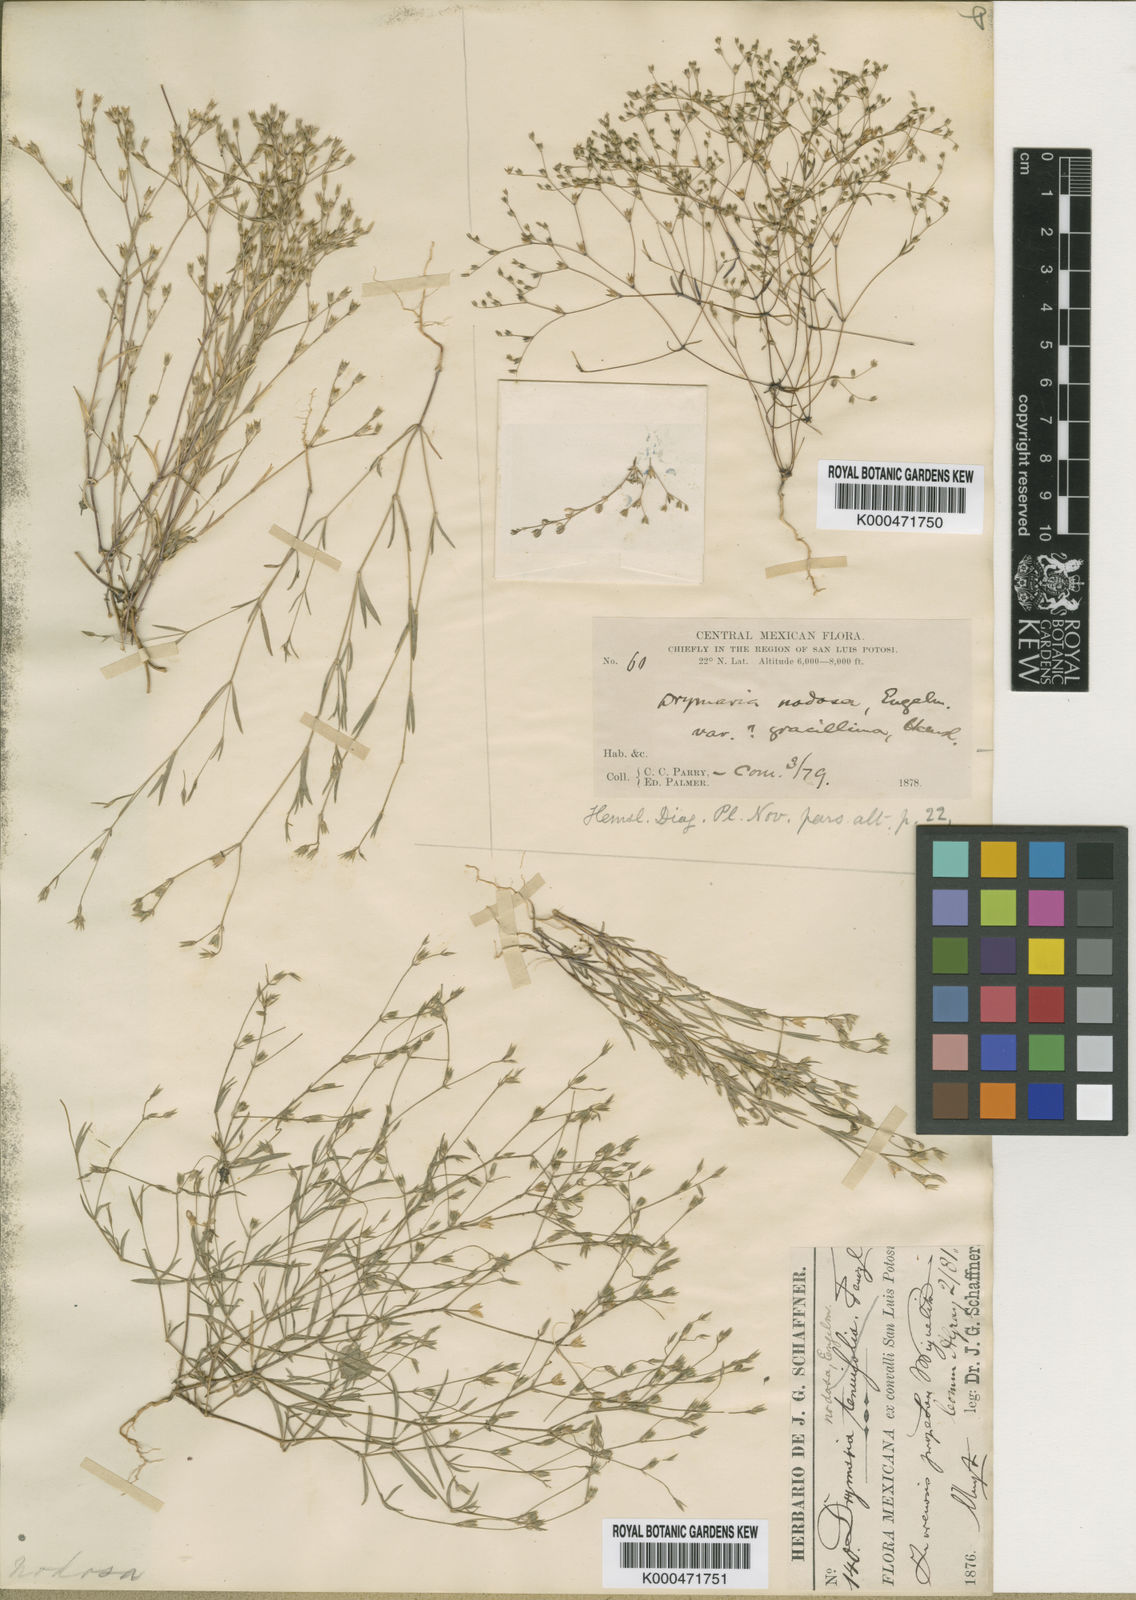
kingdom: Plantae
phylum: Tracheophyta
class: Magnoliopsida
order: Caryophyllales
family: Caryophyllaceae
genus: Drymaria
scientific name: Drymaria leptophylla
